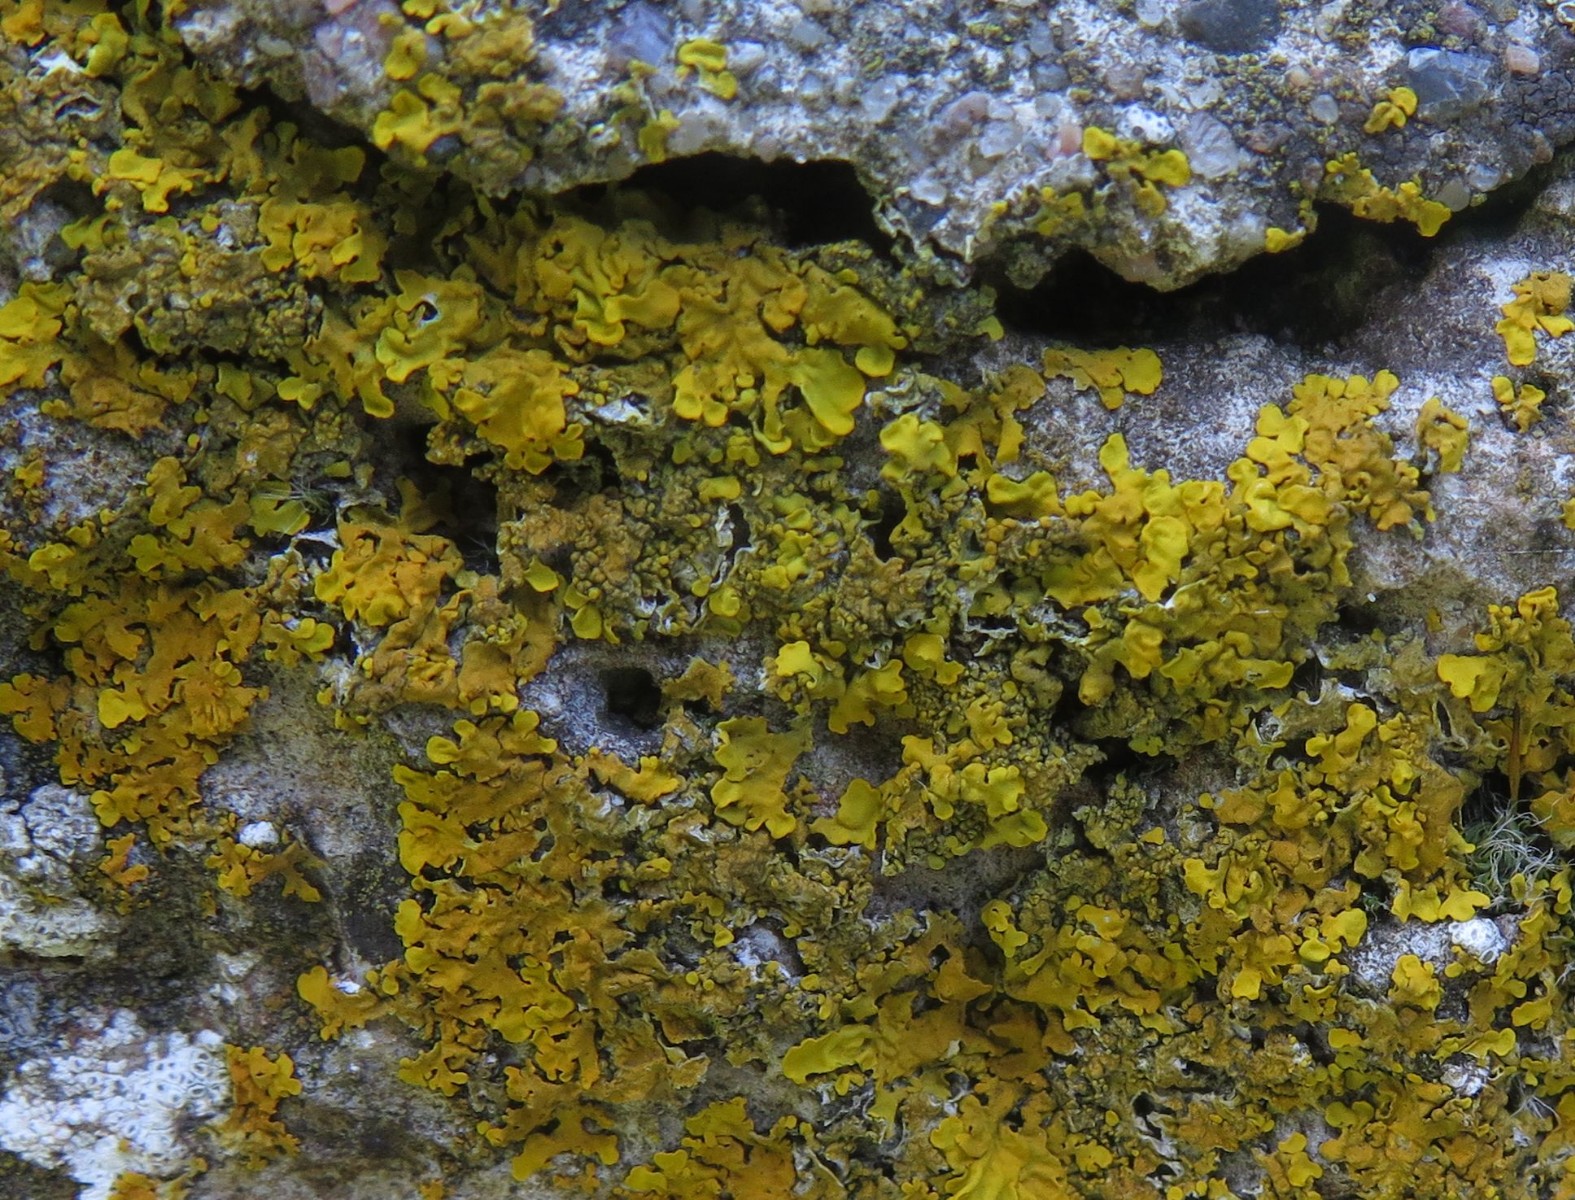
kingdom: Fungi
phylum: Ascomycota
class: Lecanoromycetes
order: Teloschistales
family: Teloschistaceae
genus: Xanthoria
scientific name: Xanthoria calcicola
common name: vortet væggelav
